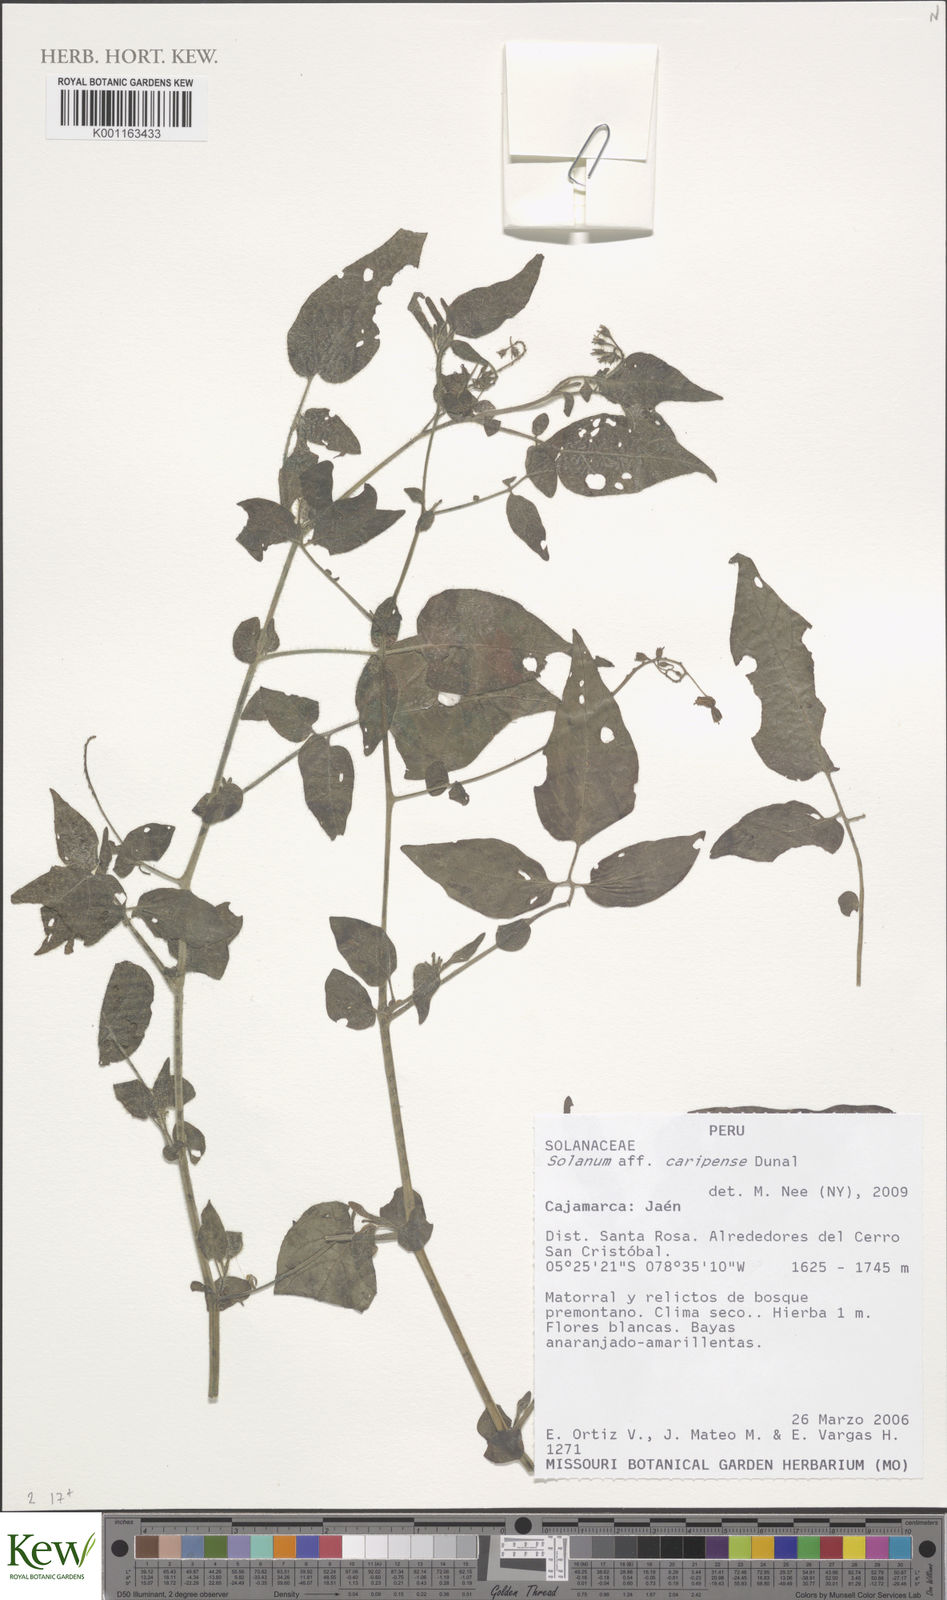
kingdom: Plantae
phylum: Tracheophyta
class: Magnoliopsida
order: Solanales
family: Solanaceae
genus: Solanum
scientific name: Solanum caripense
